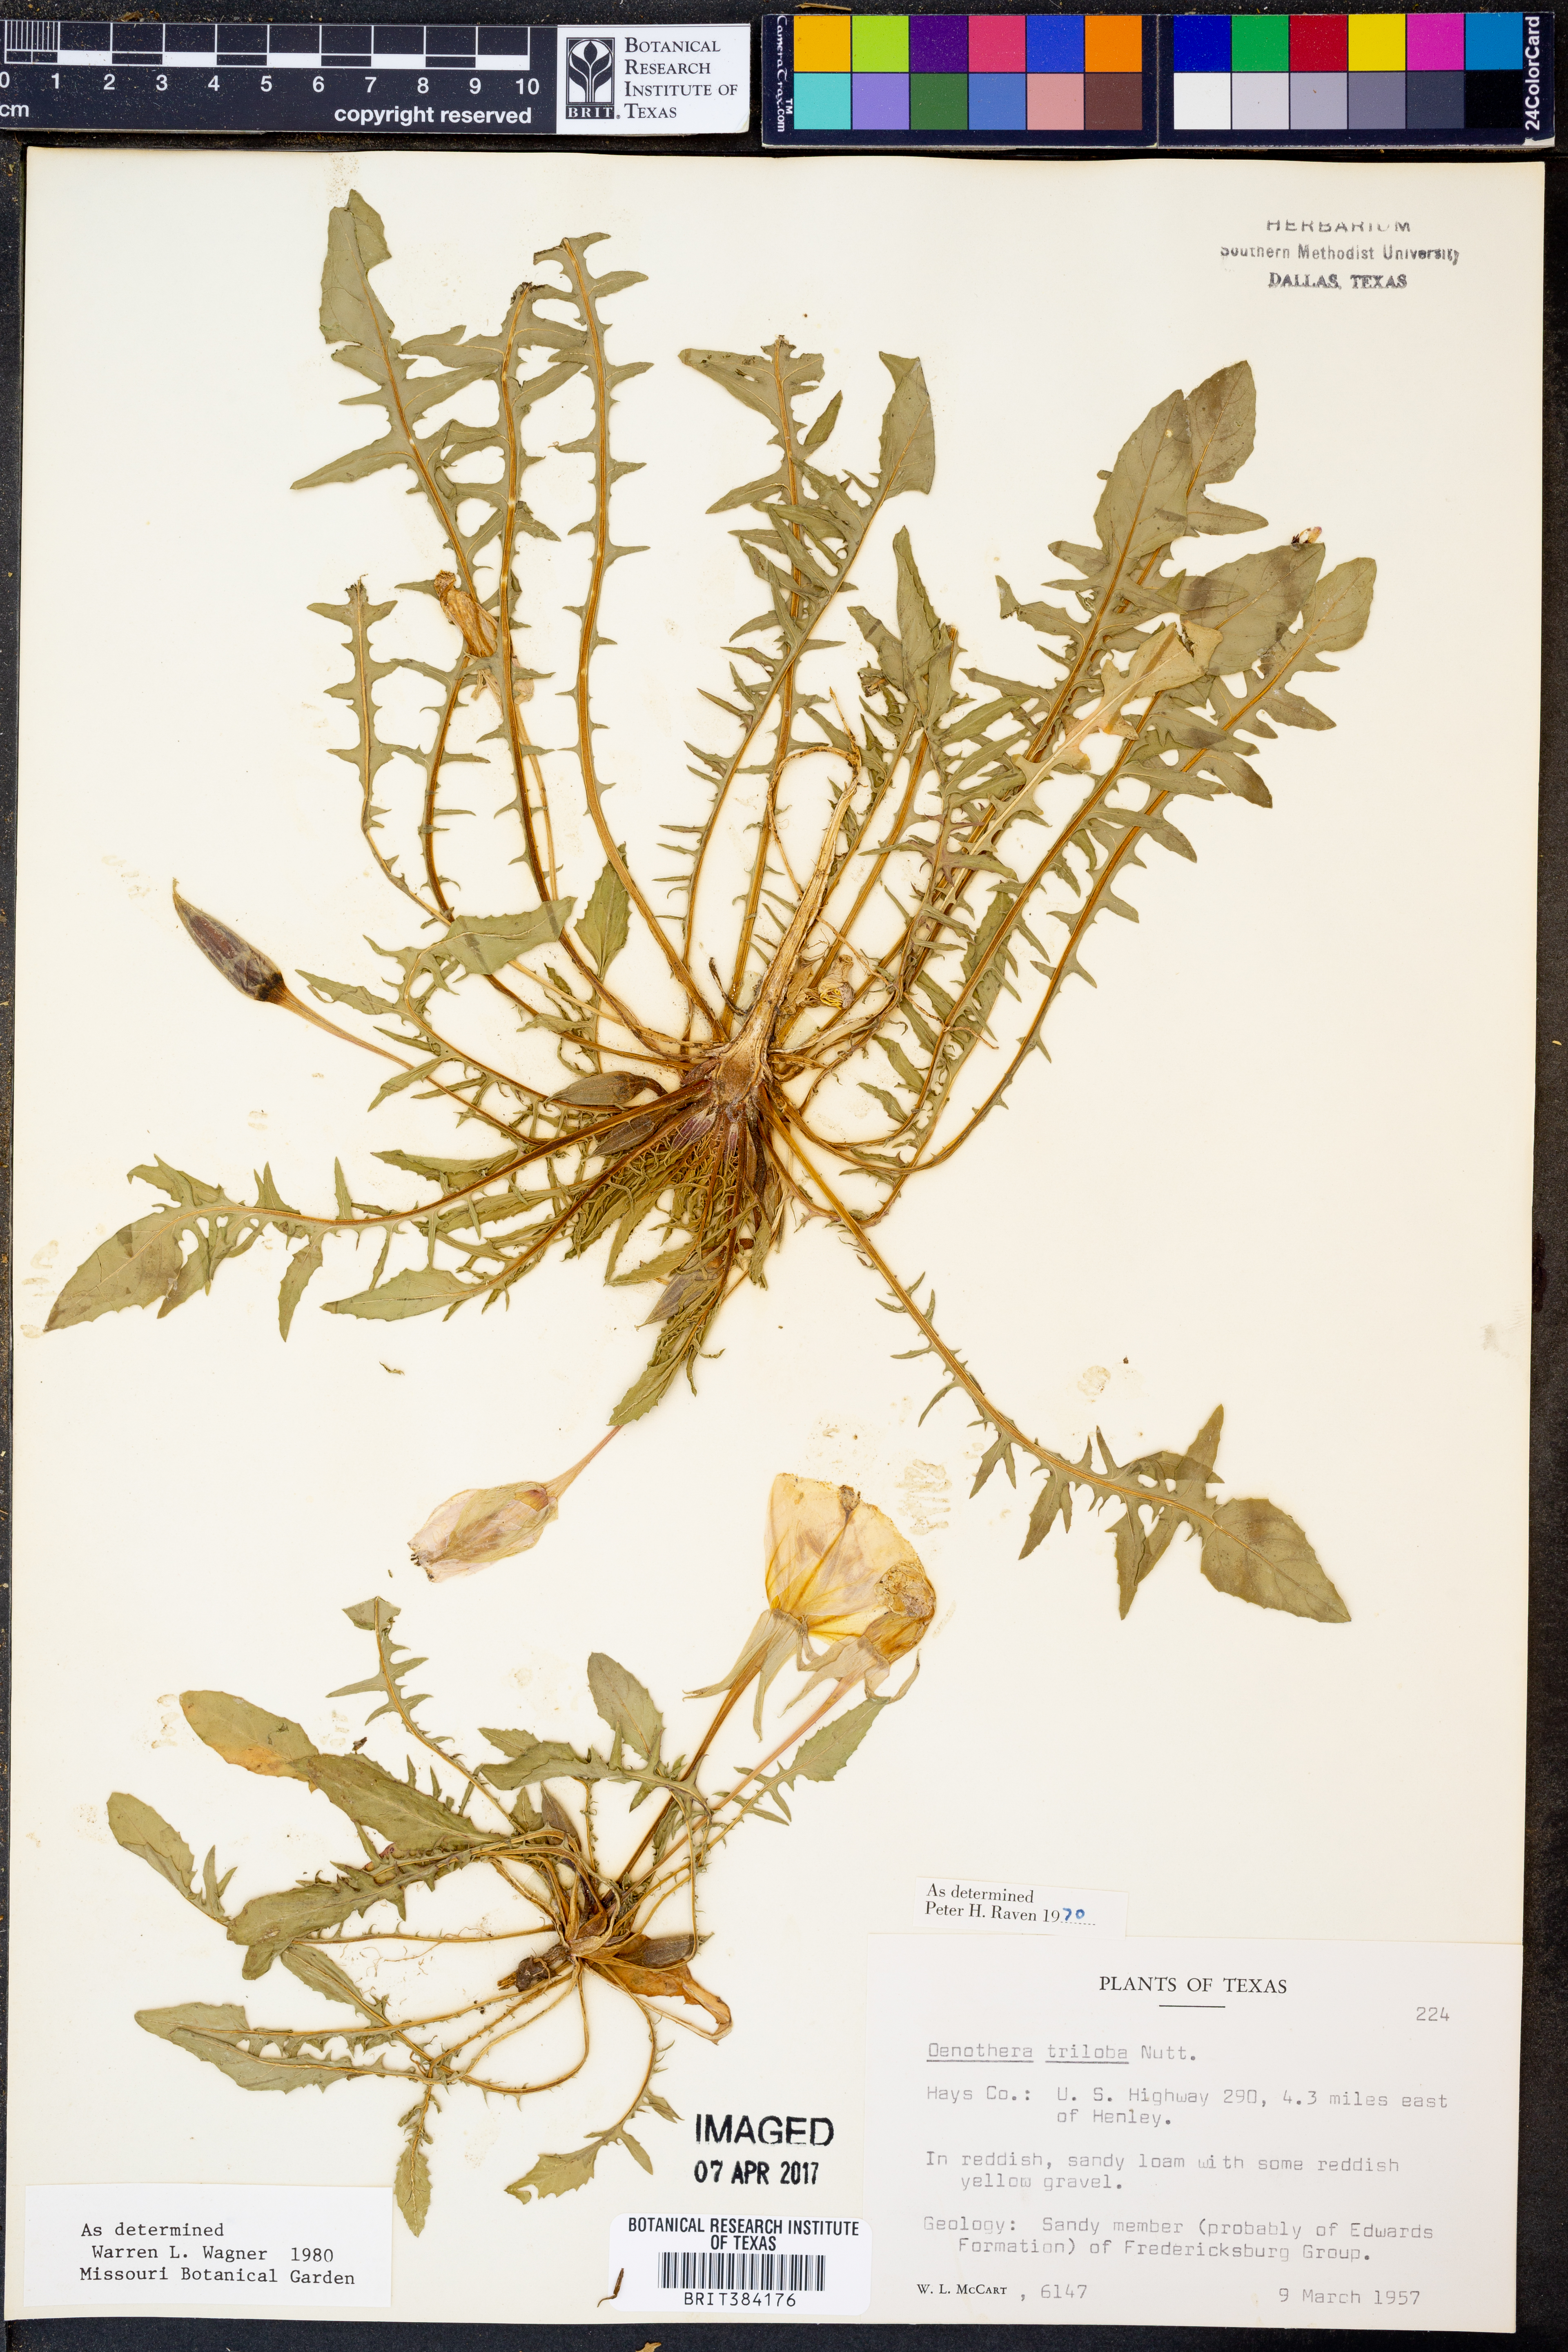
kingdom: Plantae
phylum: Tracheophyta
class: Magnoliopsida
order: Myrtales
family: Onagraceae
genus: Oenothera
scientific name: Oenothera triloba
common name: Sessile evening-primrose
